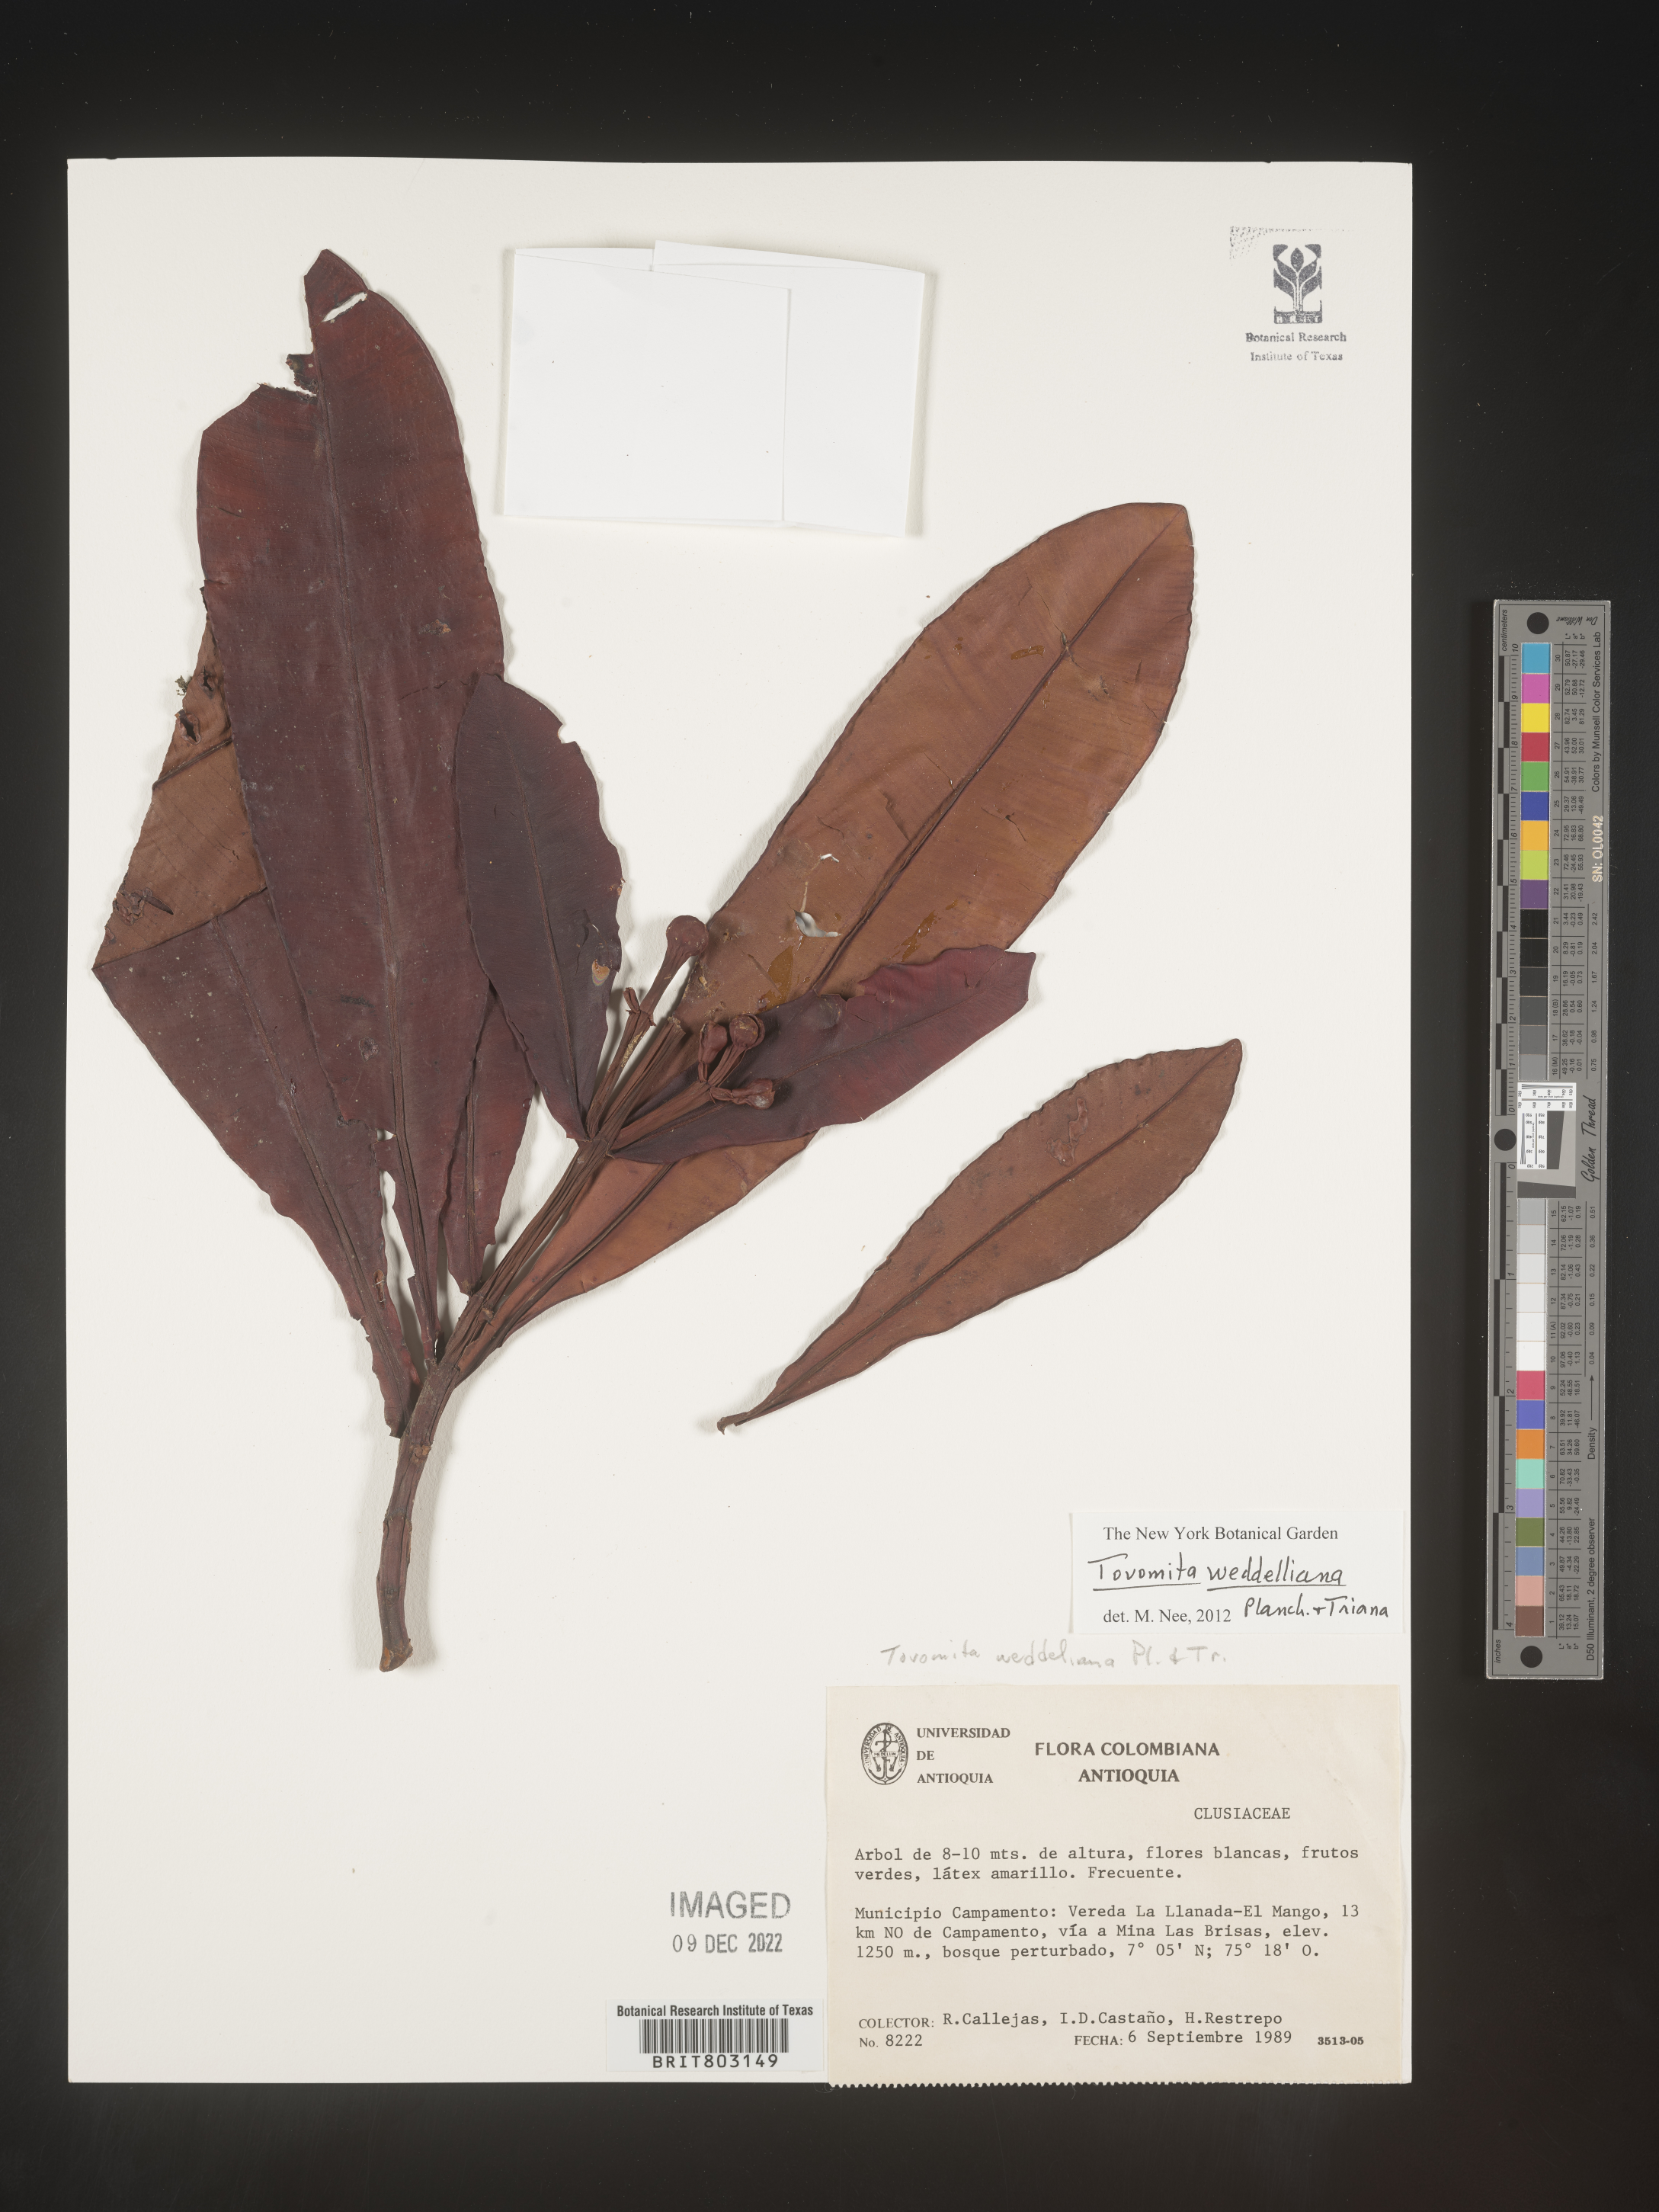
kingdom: Plantae
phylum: Tracheophyta
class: Magnoliopsida
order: Malpighiales
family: Clusiaceae
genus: Arawakia
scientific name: Arawakia weddelliana
